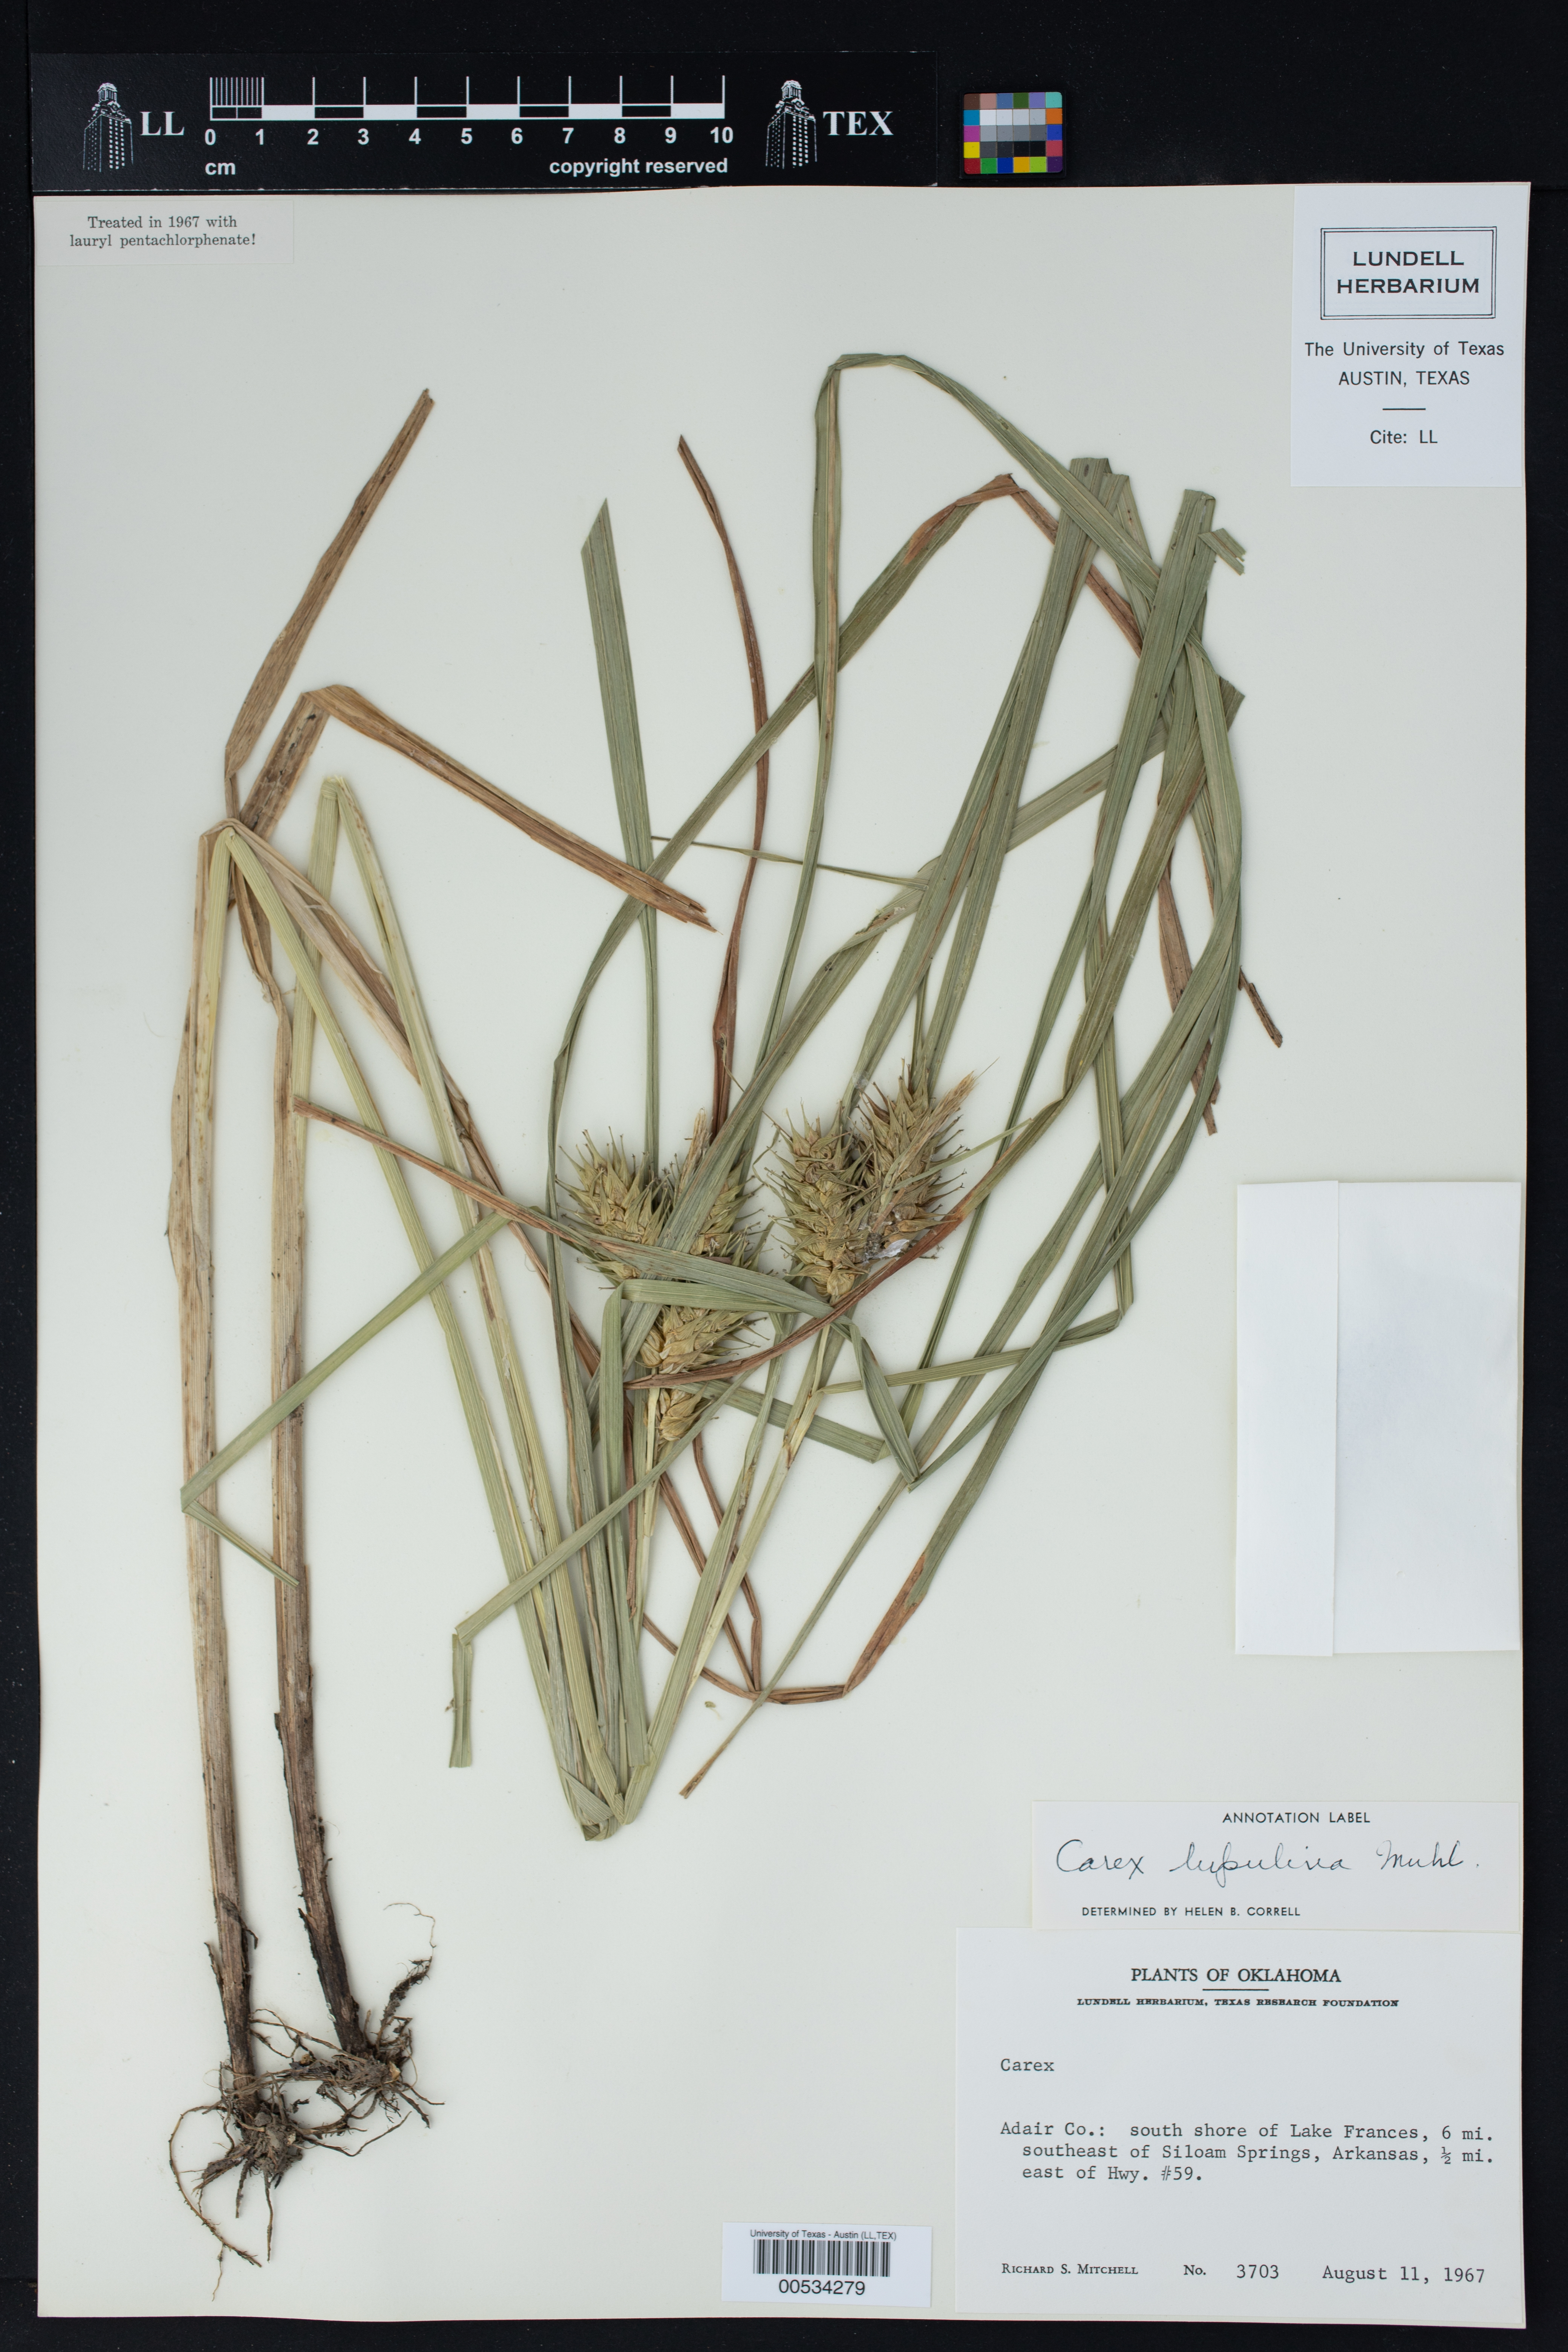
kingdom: Plantae
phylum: Tracheophyta
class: Liliopsida
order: Poales
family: Cyperaceae
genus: Carex
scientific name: Carex lupulina
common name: Hop sedge
